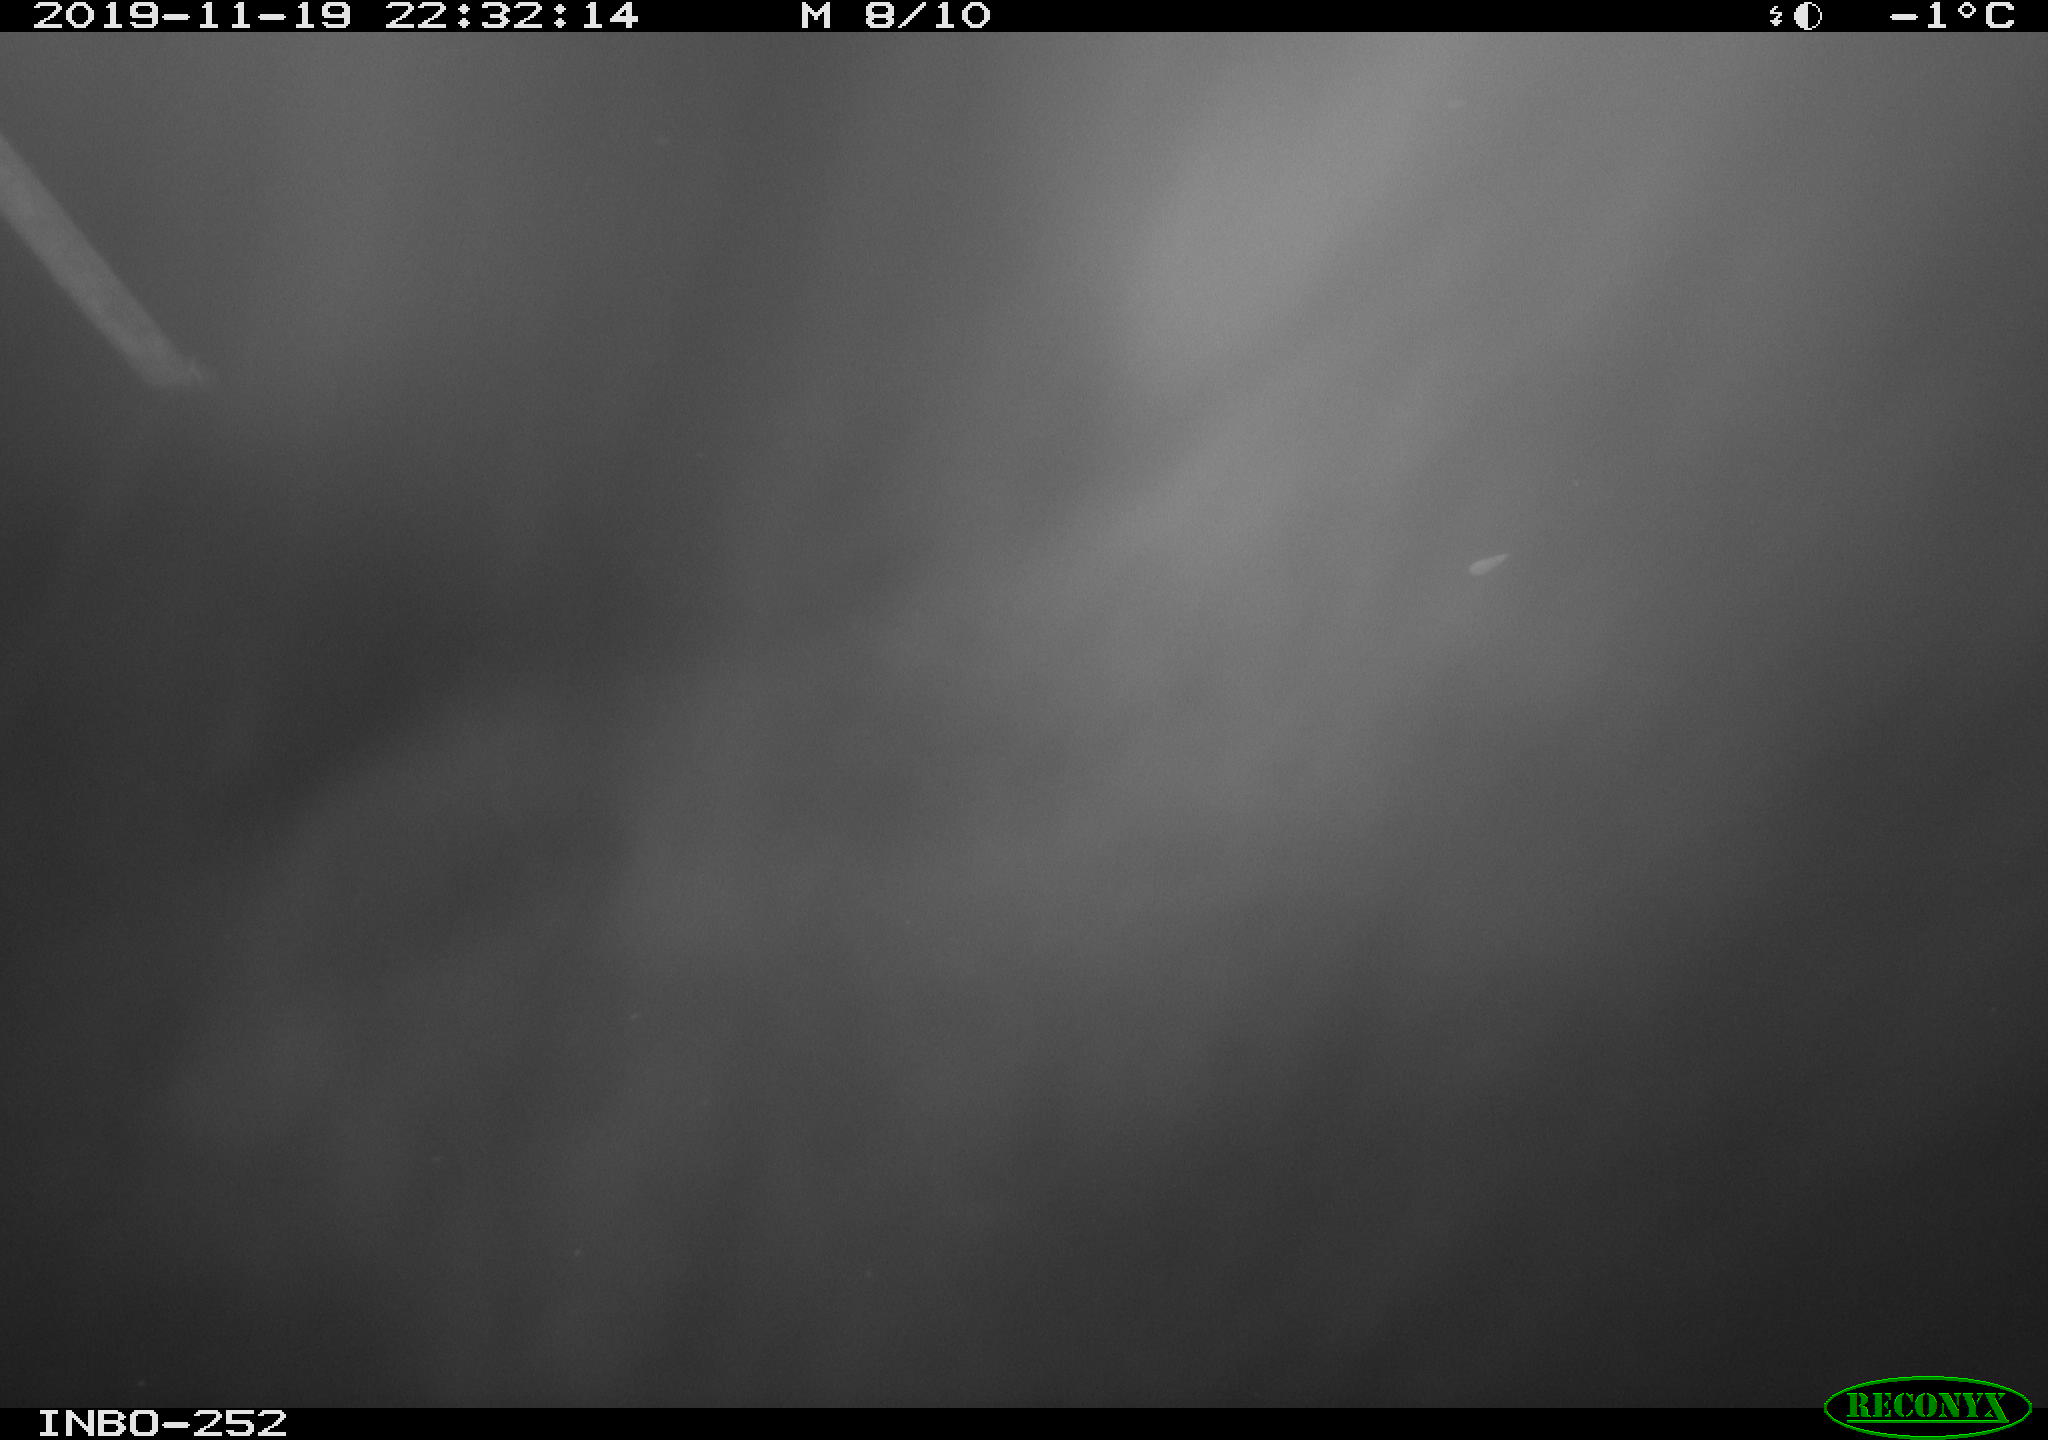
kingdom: Animalia
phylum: Chordata
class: Aves
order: Anseriformes
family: Anatidae
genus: Anas
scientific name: Anas platyrhynchos
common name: Mallard
